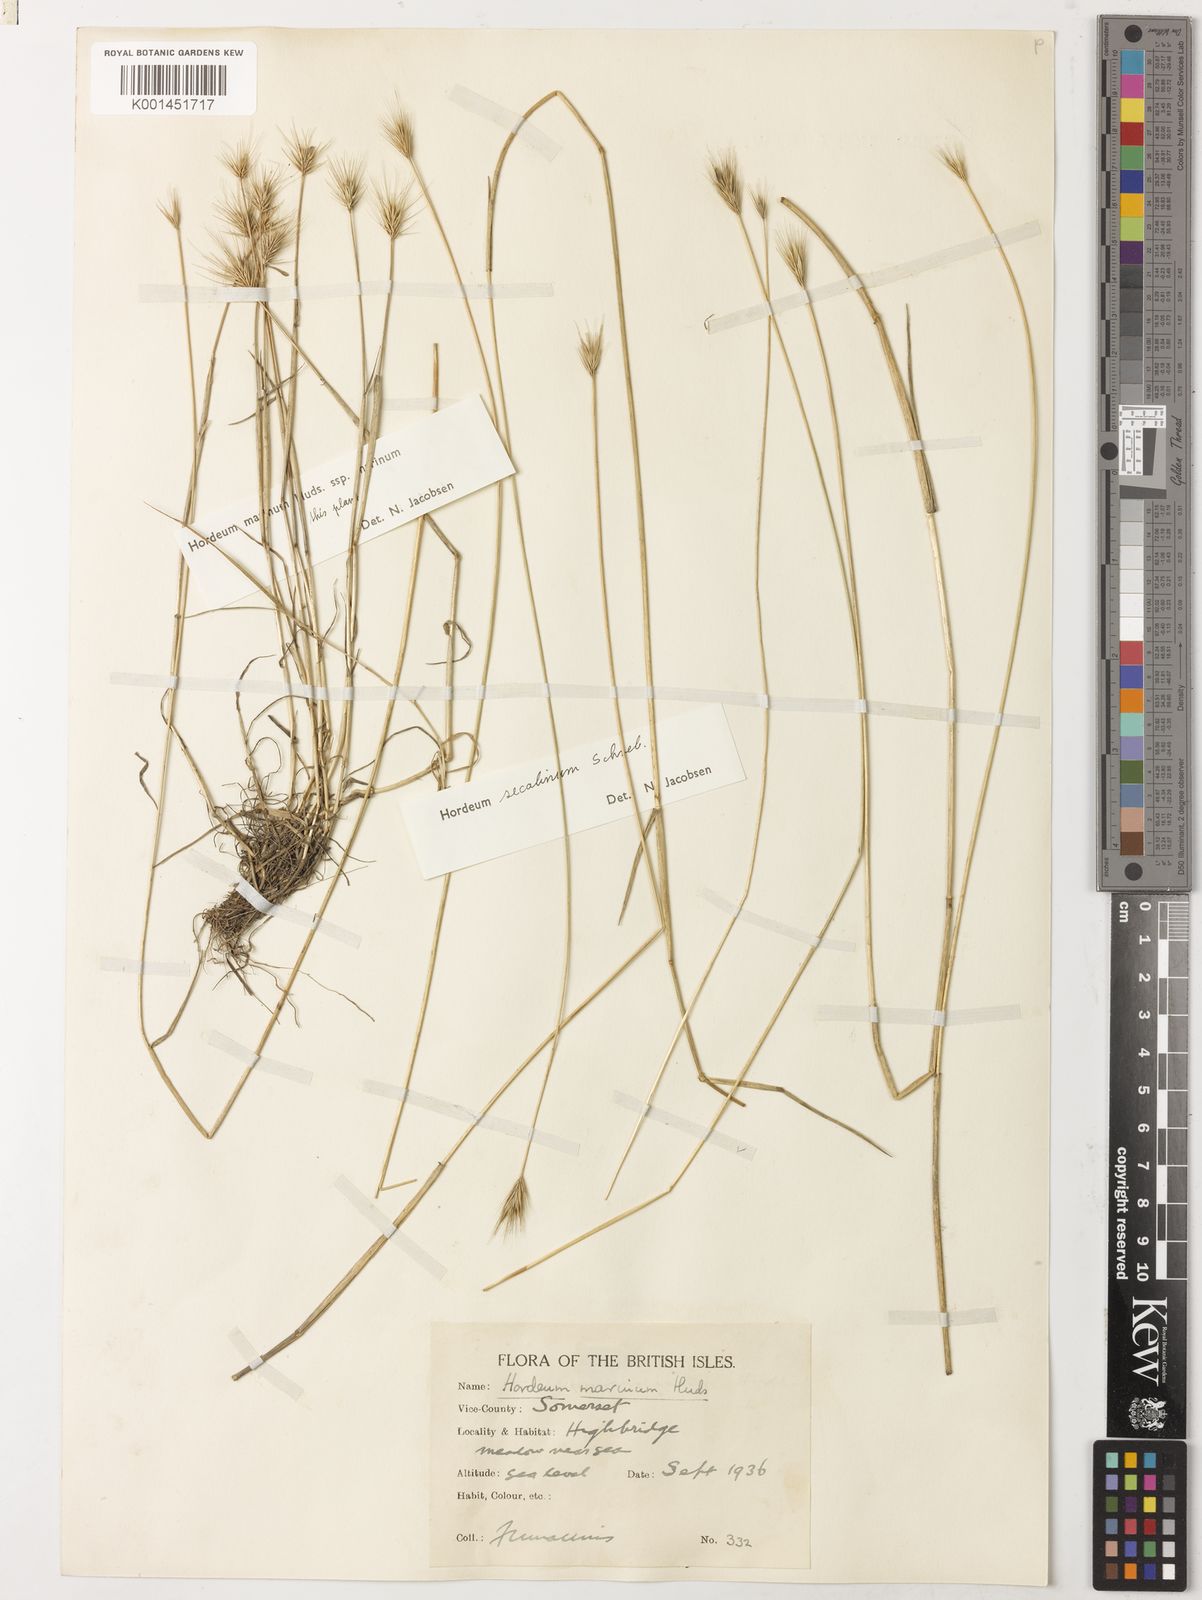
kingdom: Plantae
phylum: Tracheophyta
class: Liliopsida
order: Poales
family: Poaceae
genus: Hordeum
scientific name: Hordeum secalinum
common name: Meadow barley
